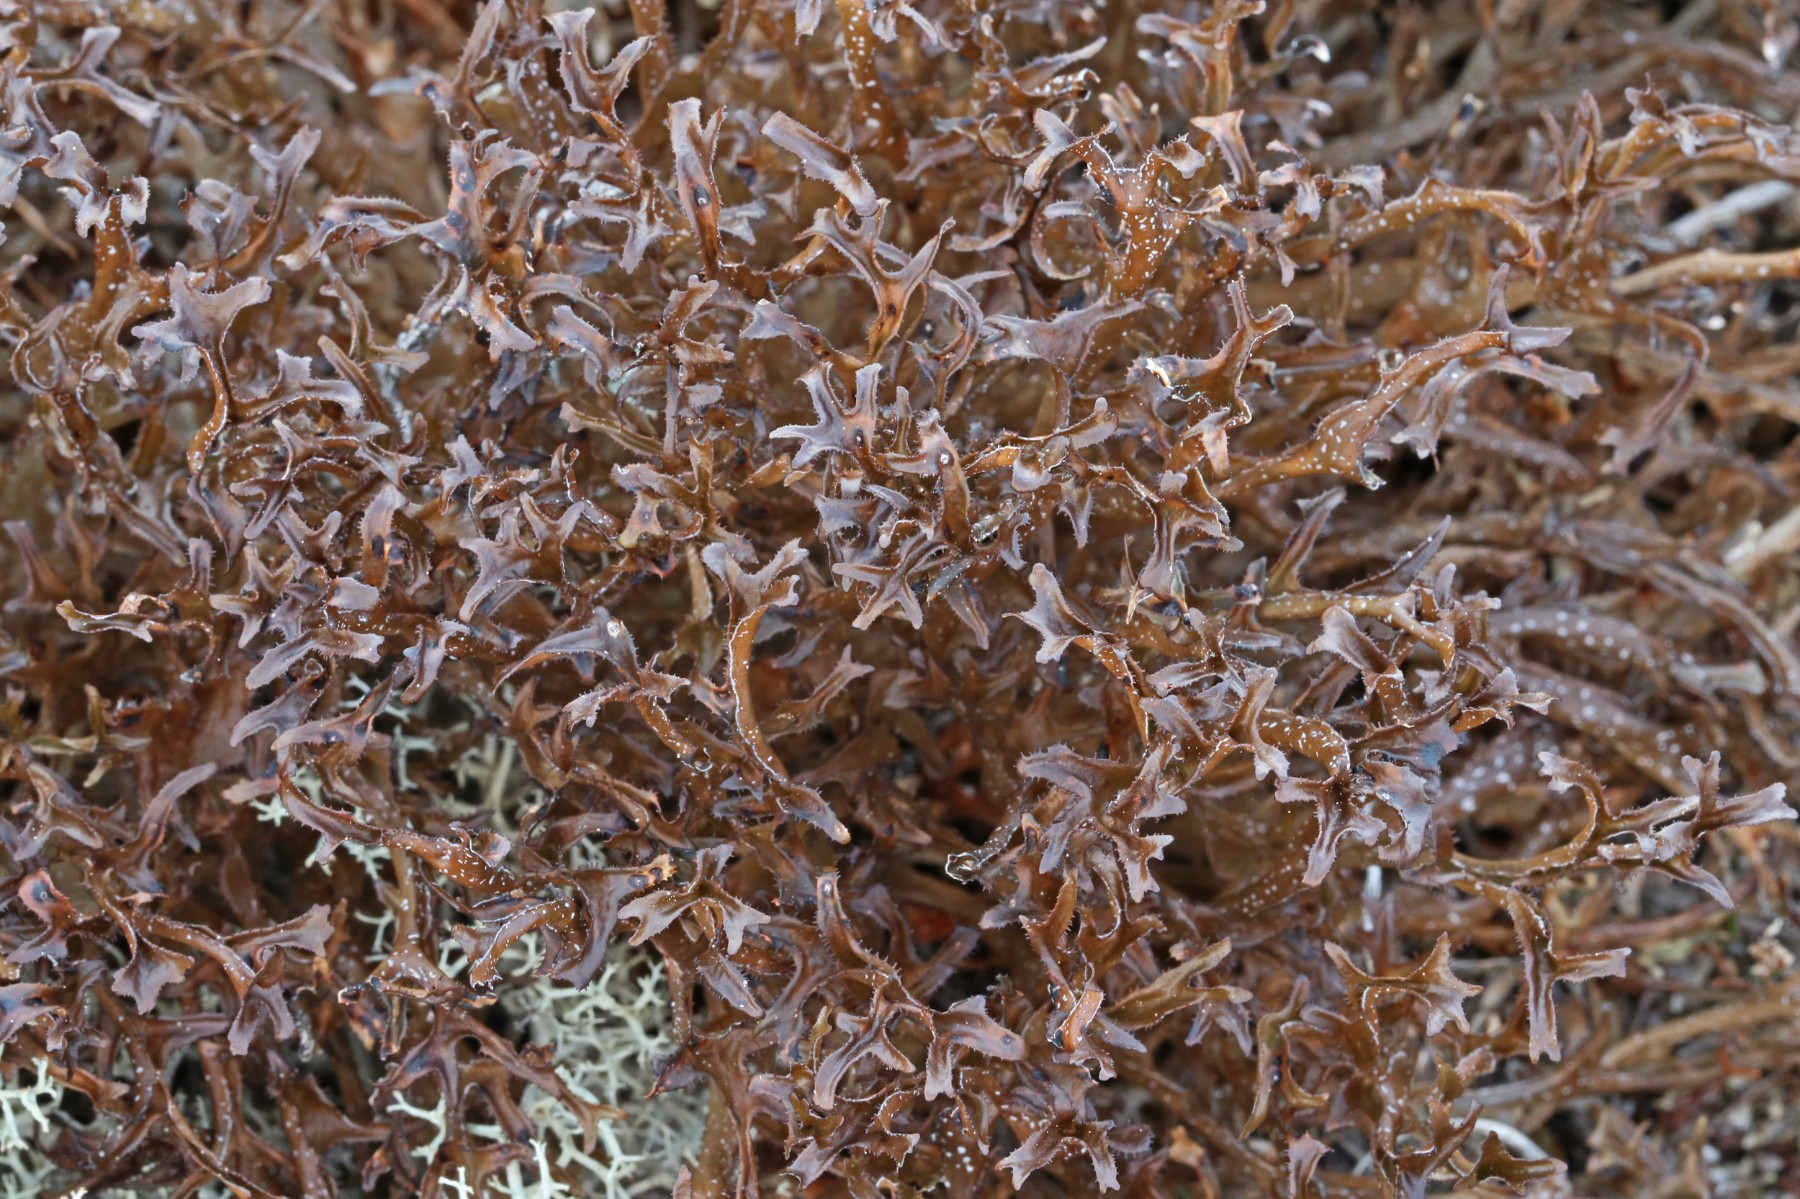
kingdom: Fungi
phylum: Ascomycota
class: Lecanoromycetes
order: Lecanorales
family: Parmeliaceae
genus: Cetraria
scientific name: Cetraria islandica
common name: islandsk kruslav
